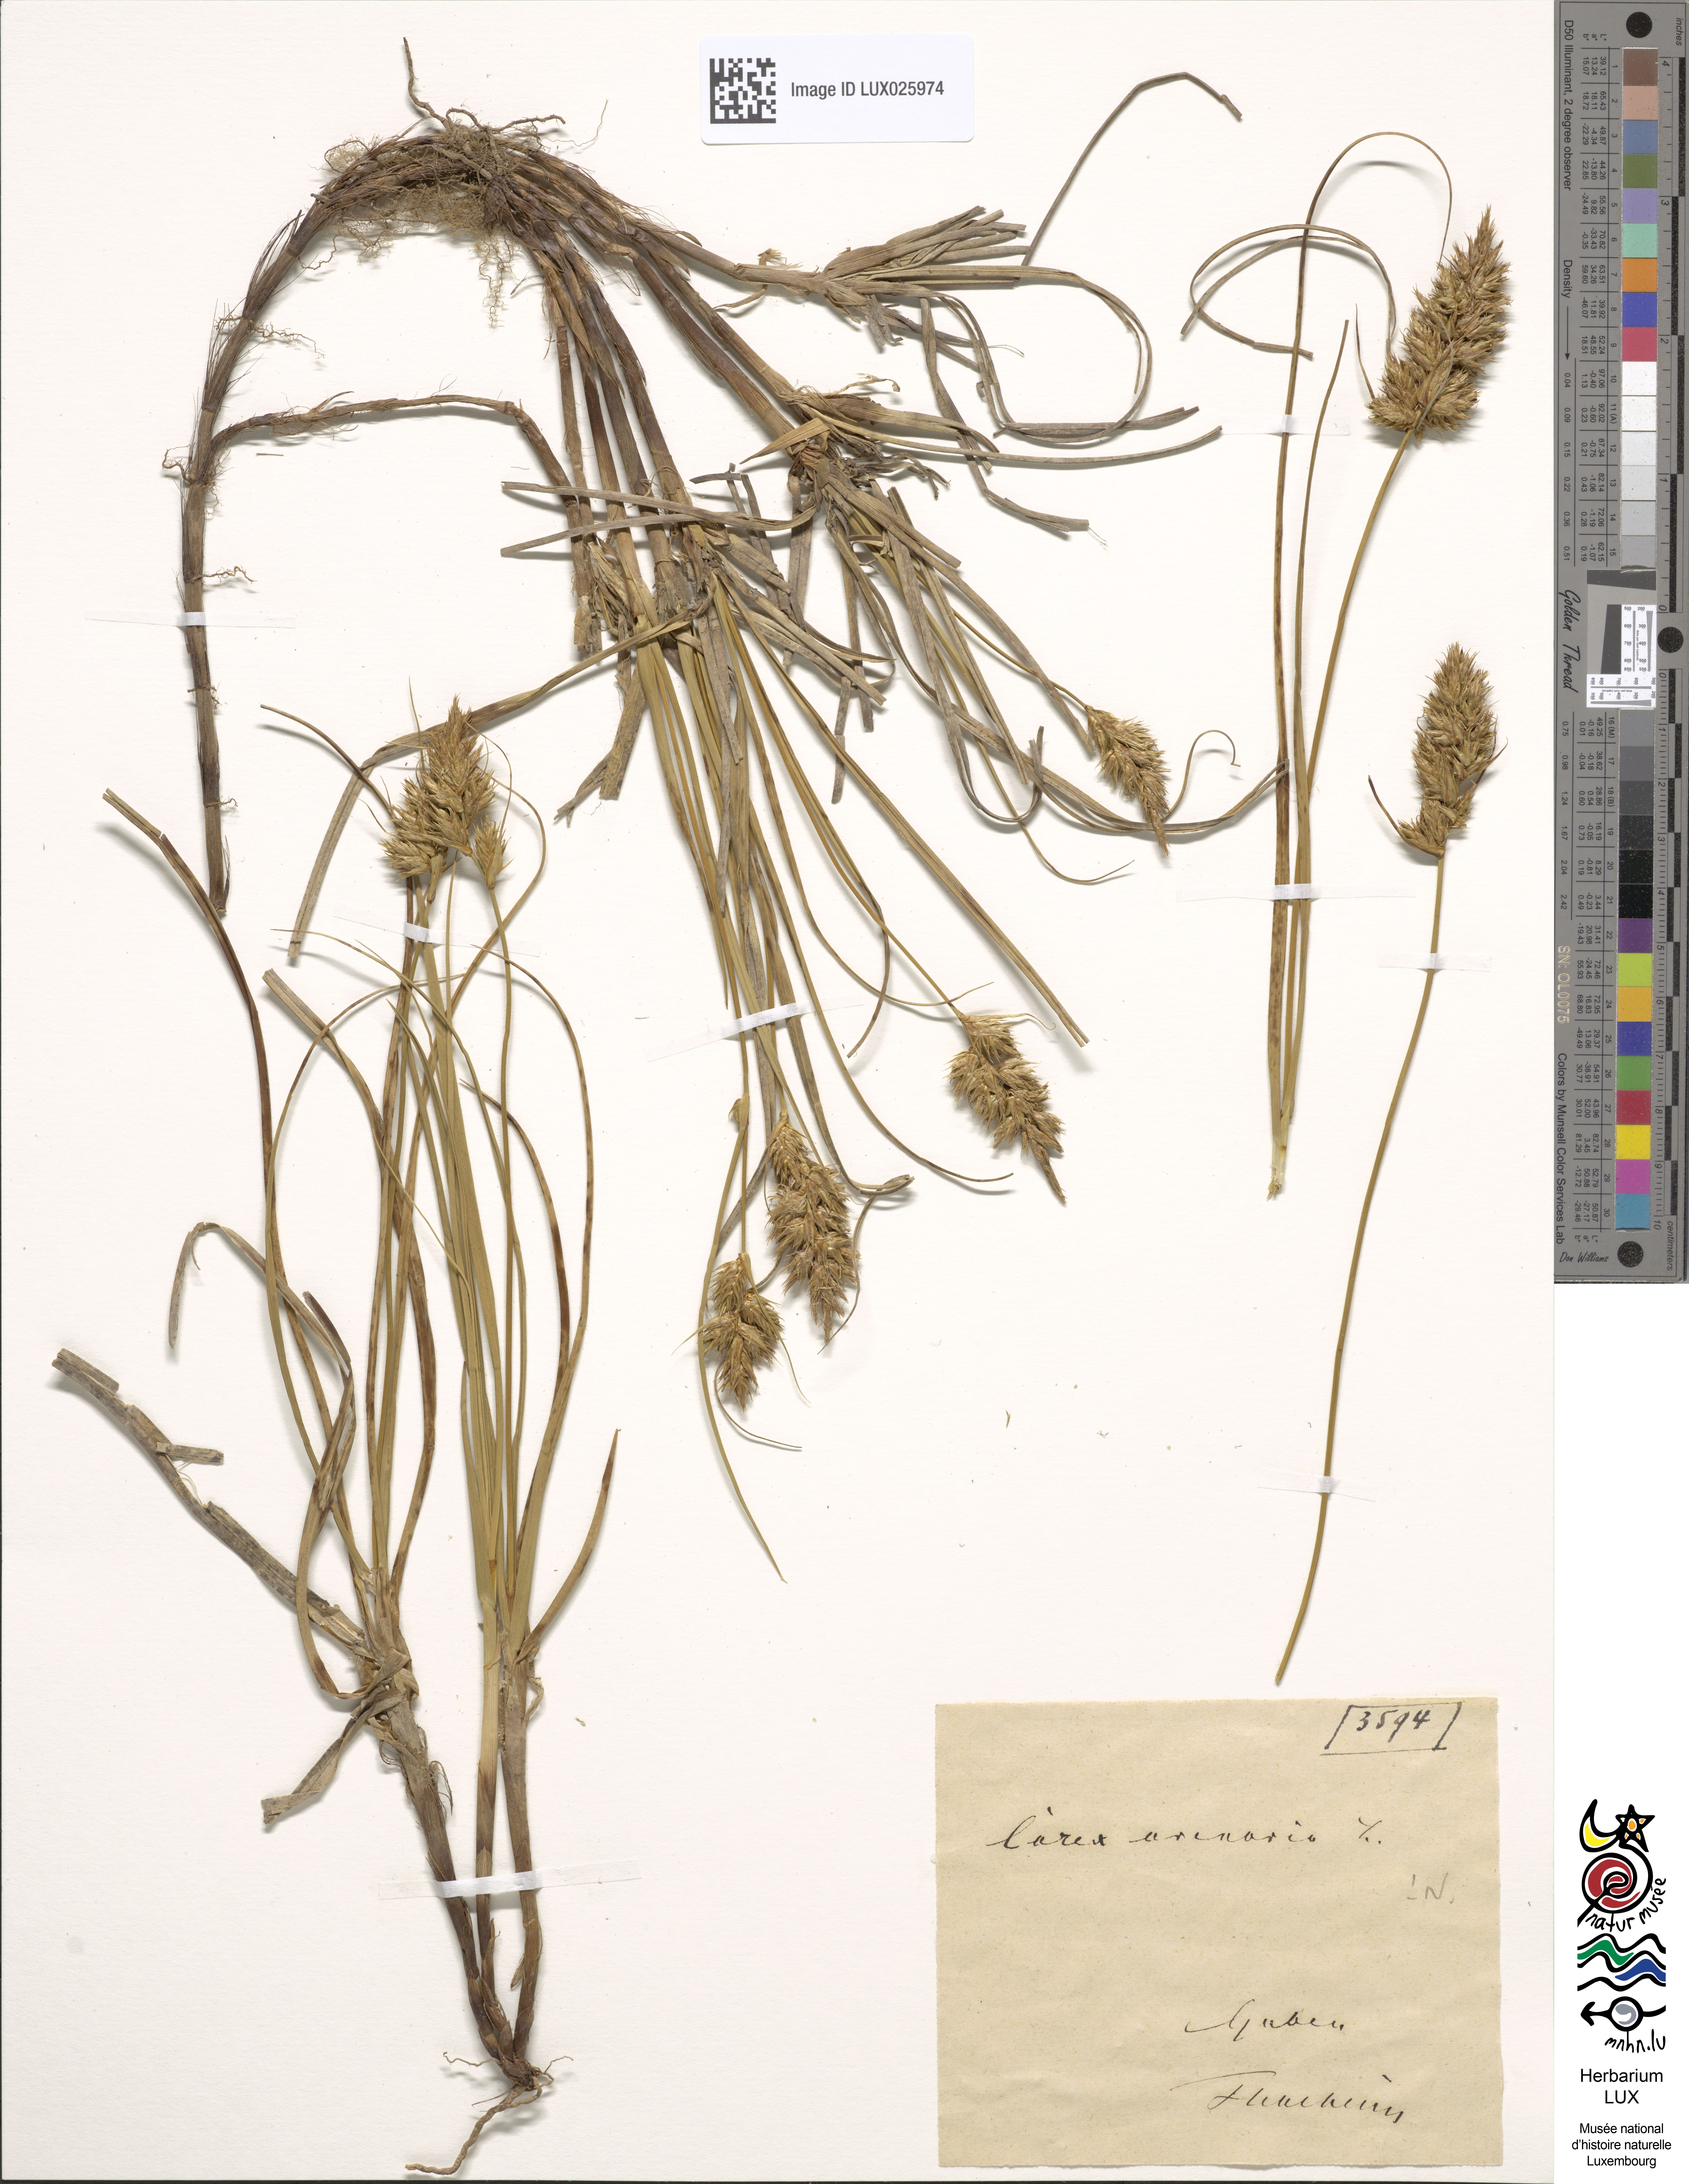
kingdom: Plantae
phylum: Tracheophyta
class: Liliopsida
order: Poales
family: Cyperaceae
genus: Carex
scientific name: Carex arenaria
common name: Sand sedge
